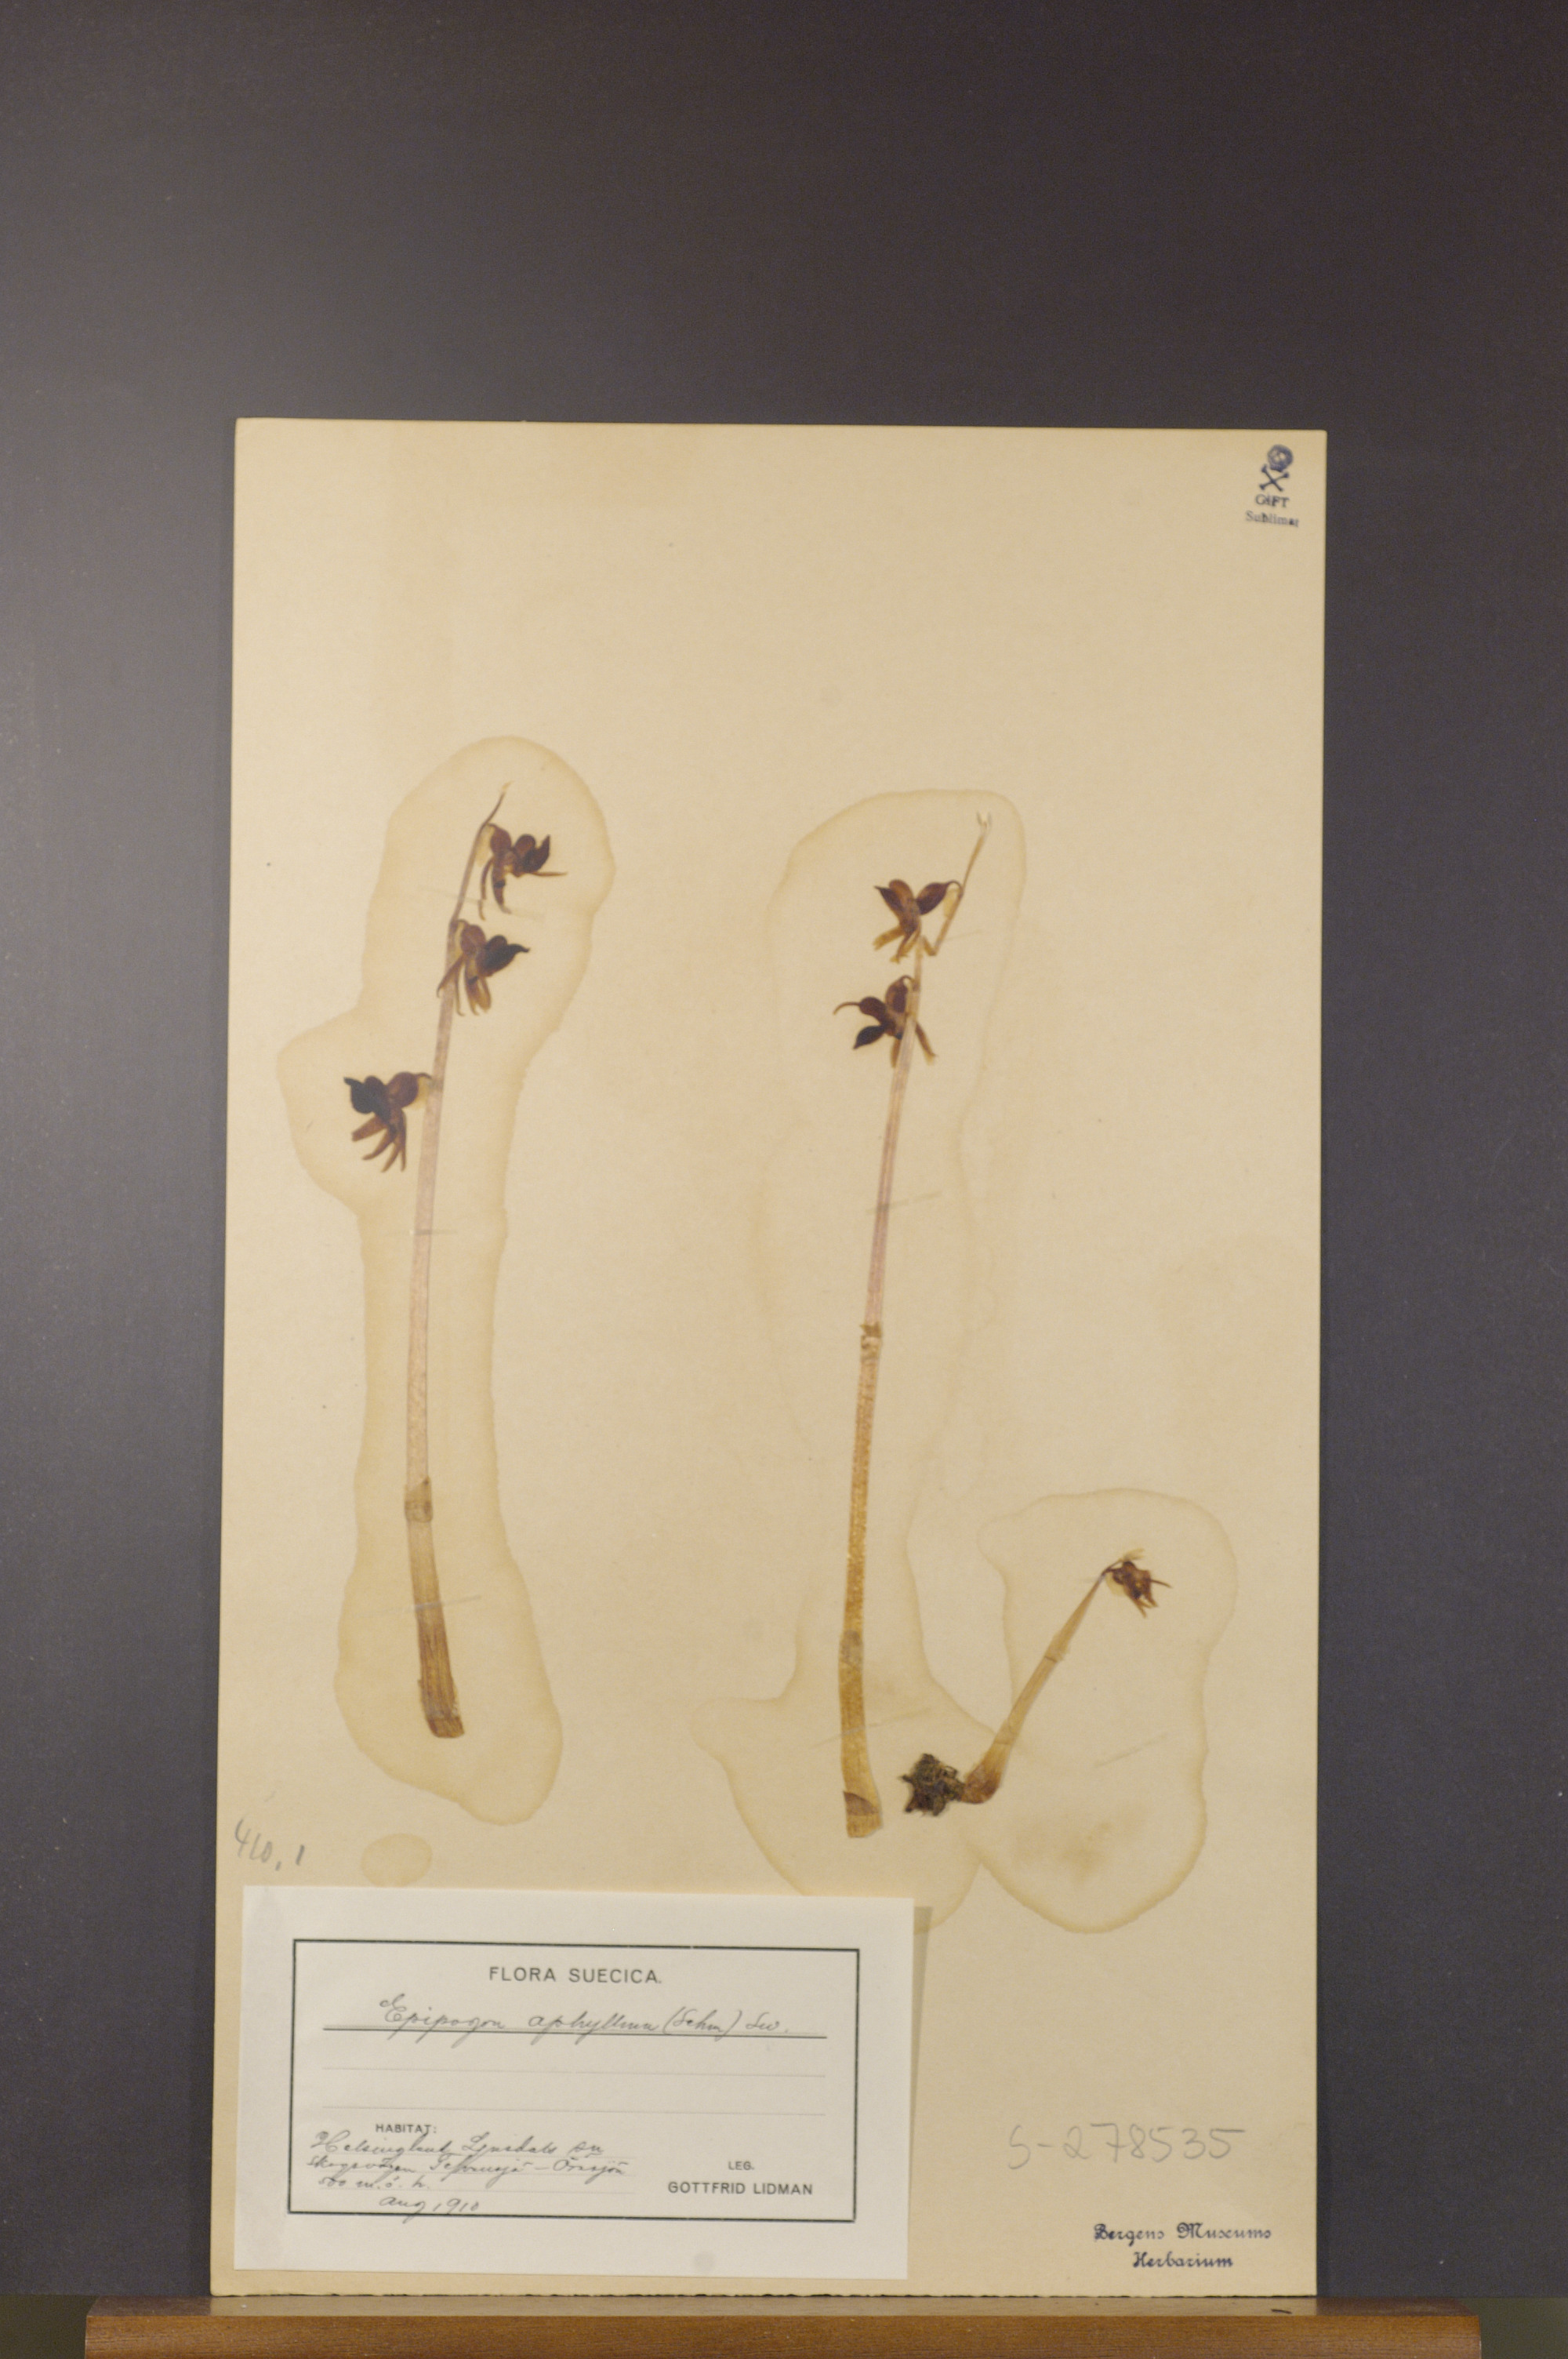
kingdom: Plantae
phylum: Tracheophyta
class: Liliopsida
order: Asparagales
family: Orchidaceae
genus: Epipogium
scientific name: Epipogium aphyllum
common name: Ghost orchid
